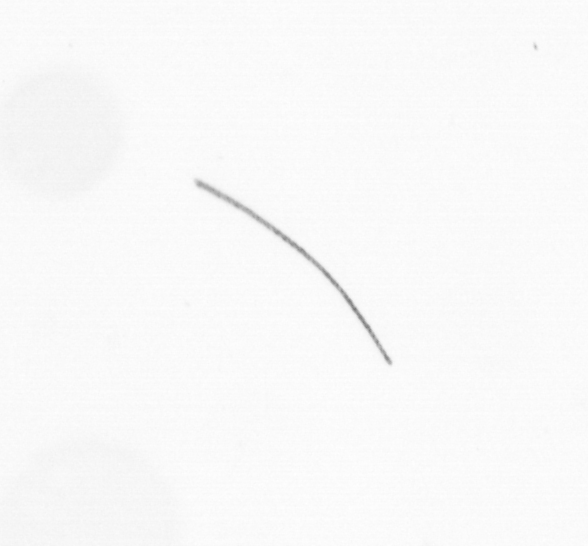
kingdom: Chromista
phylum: Ochrophyta
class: Bacillariophyceae
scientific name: Bacillariophyceae
